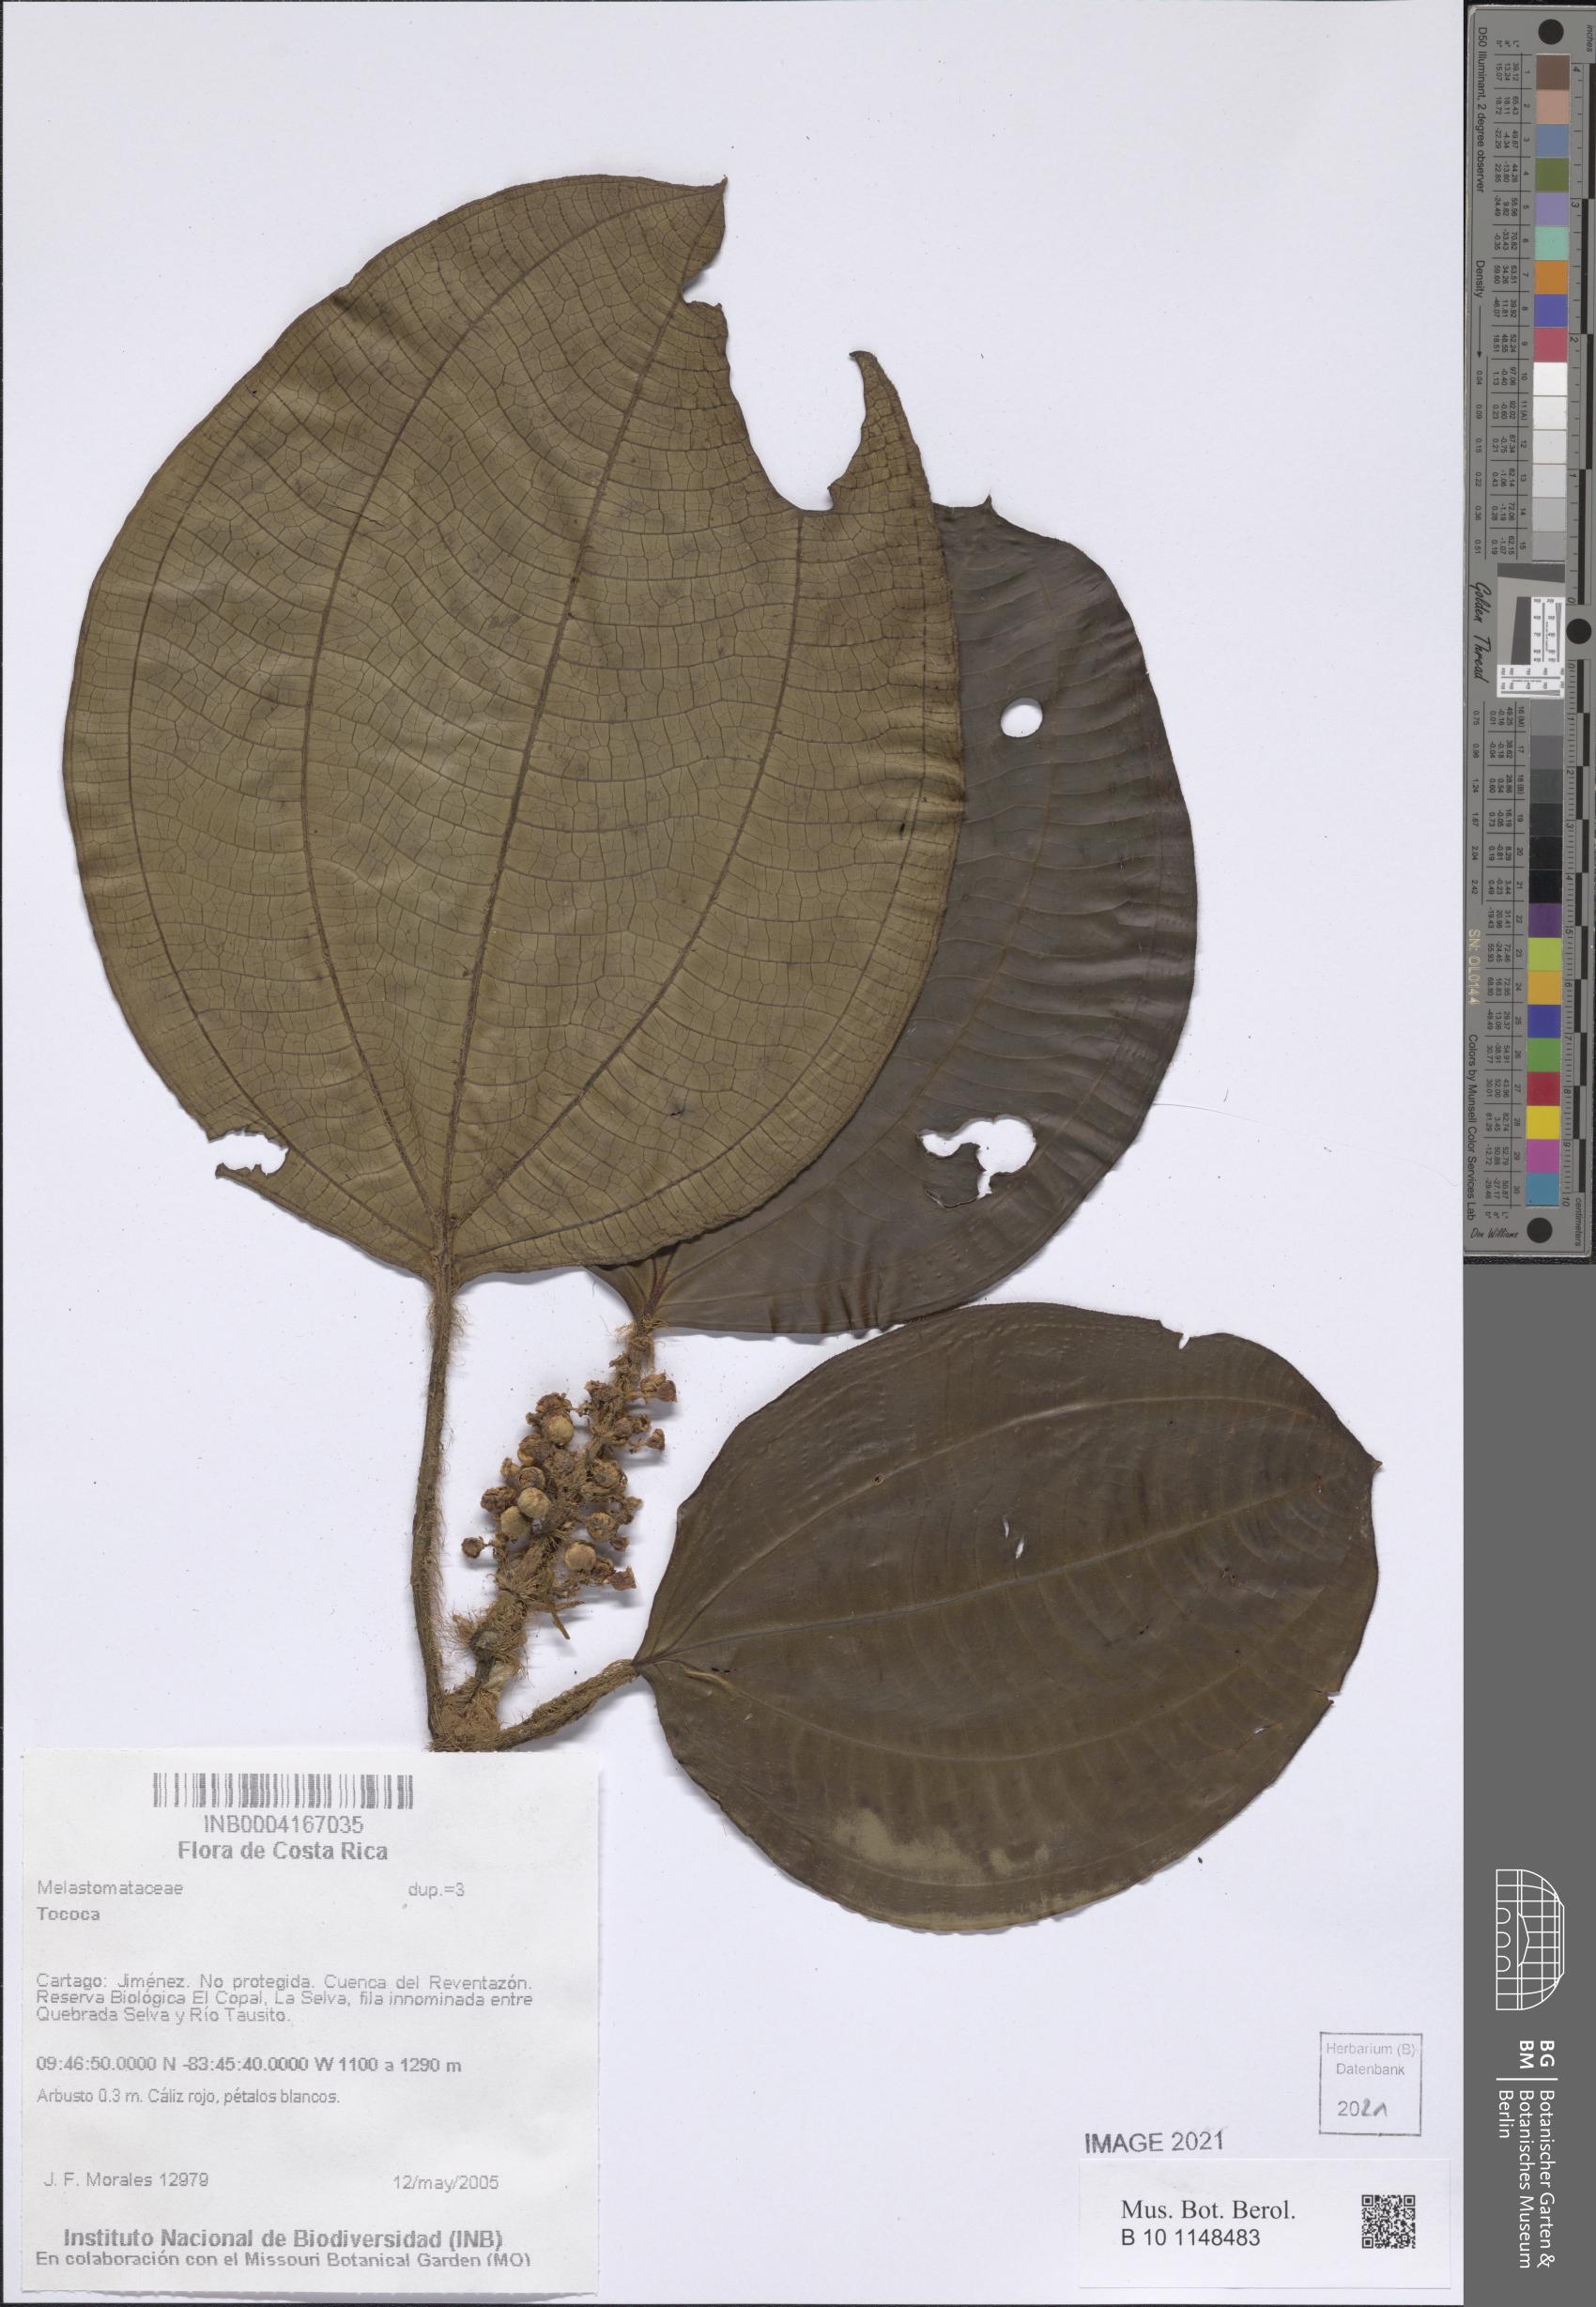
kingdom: Plantae
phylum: Tracheophyta
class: Magnoliopsida
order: Myrtales
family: Melastomataceae
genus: Miconia
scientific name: Miconia
